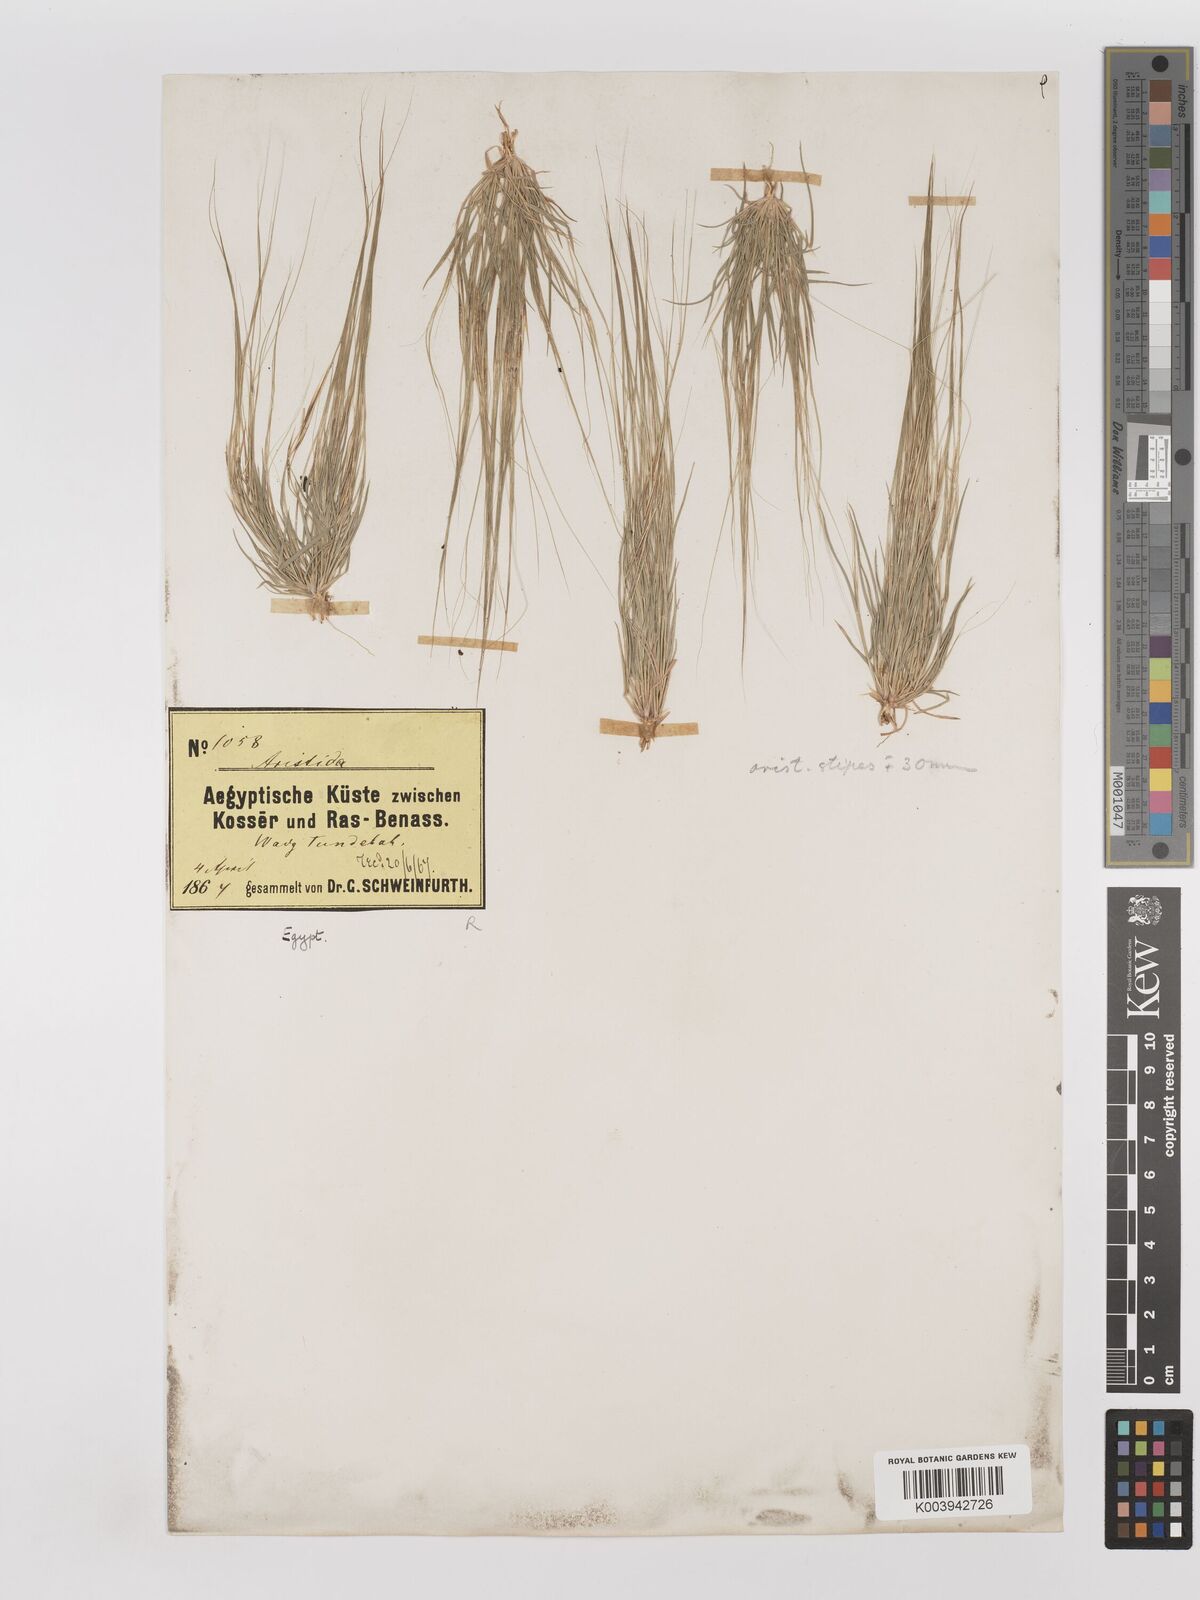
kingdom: Plantae
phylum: Tracheophyta
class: Liliopsida
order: Poales
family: Poaceae
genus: Aristida
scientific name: Aristida funiculata
